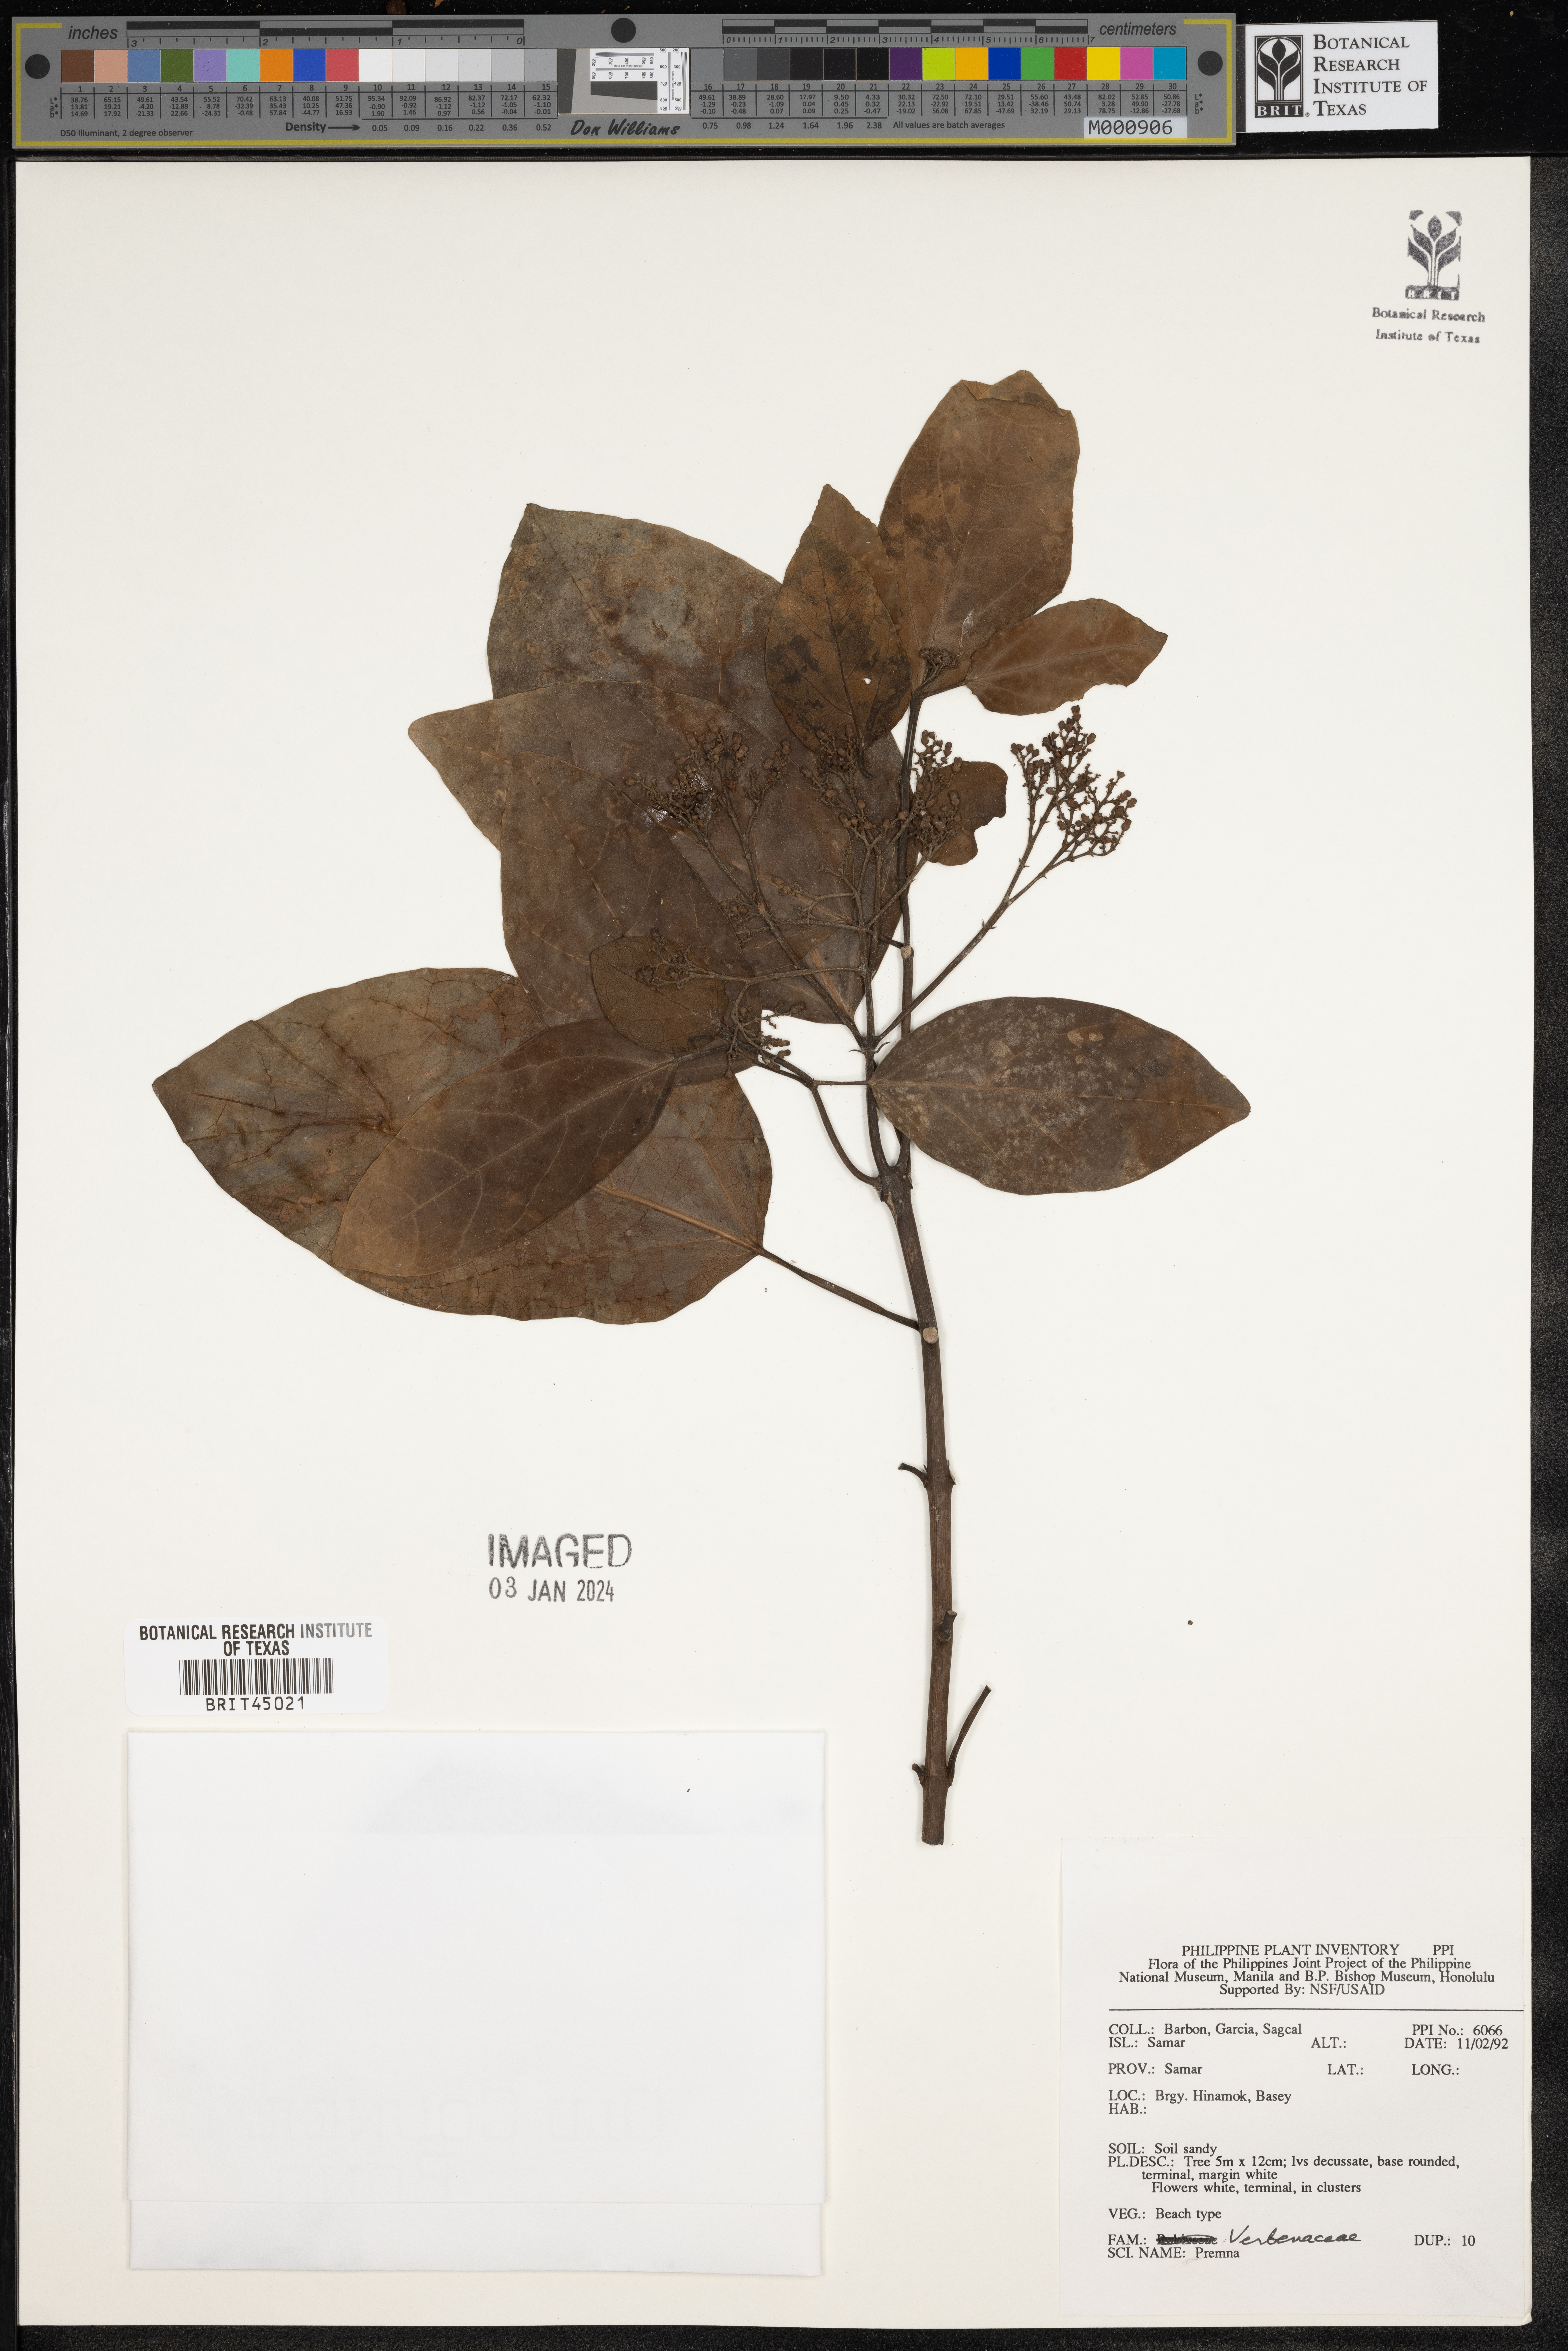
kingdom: Plantae
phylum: Tracheophyta
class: Magnoliopsida
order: Lamiales
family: Lamiaceae
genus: Premna
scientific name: Premna
